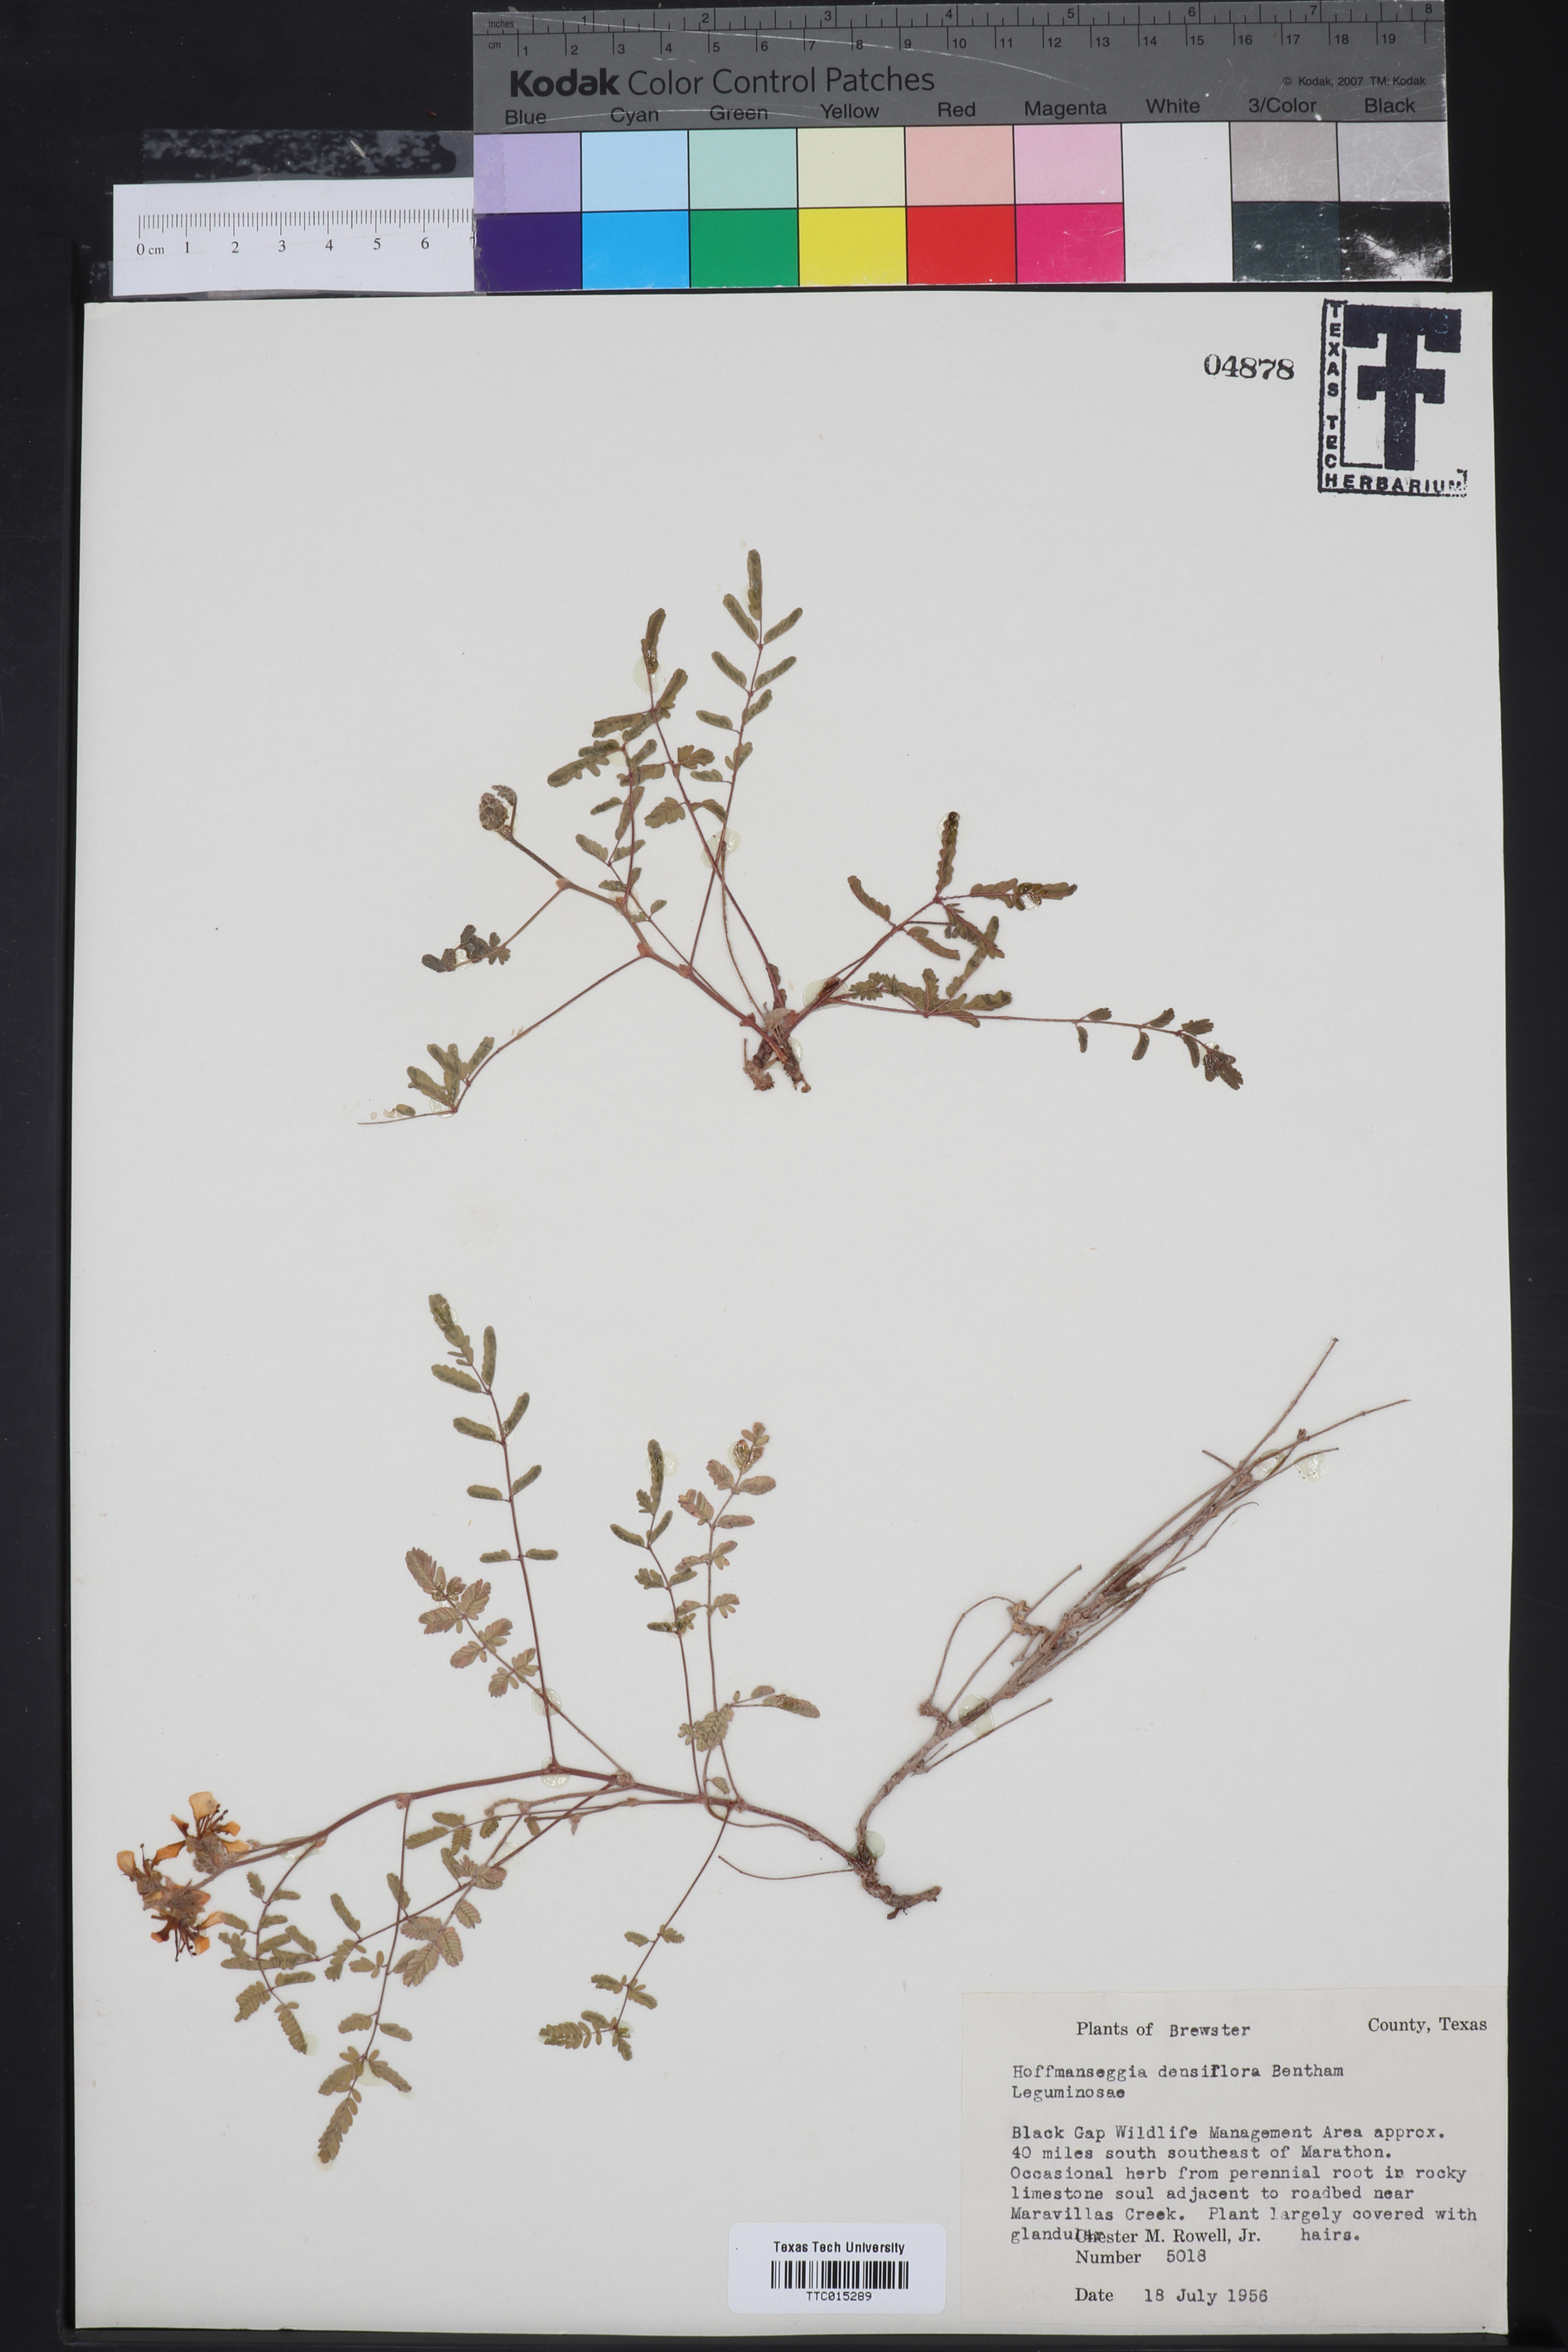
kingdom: Plantae
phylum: Tracheophyta
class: Magnoliopsida
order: Fabales
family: Fabaceae
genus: Hoffmannseggia
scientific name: Hoffmannseggia glauca
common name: Pignut
